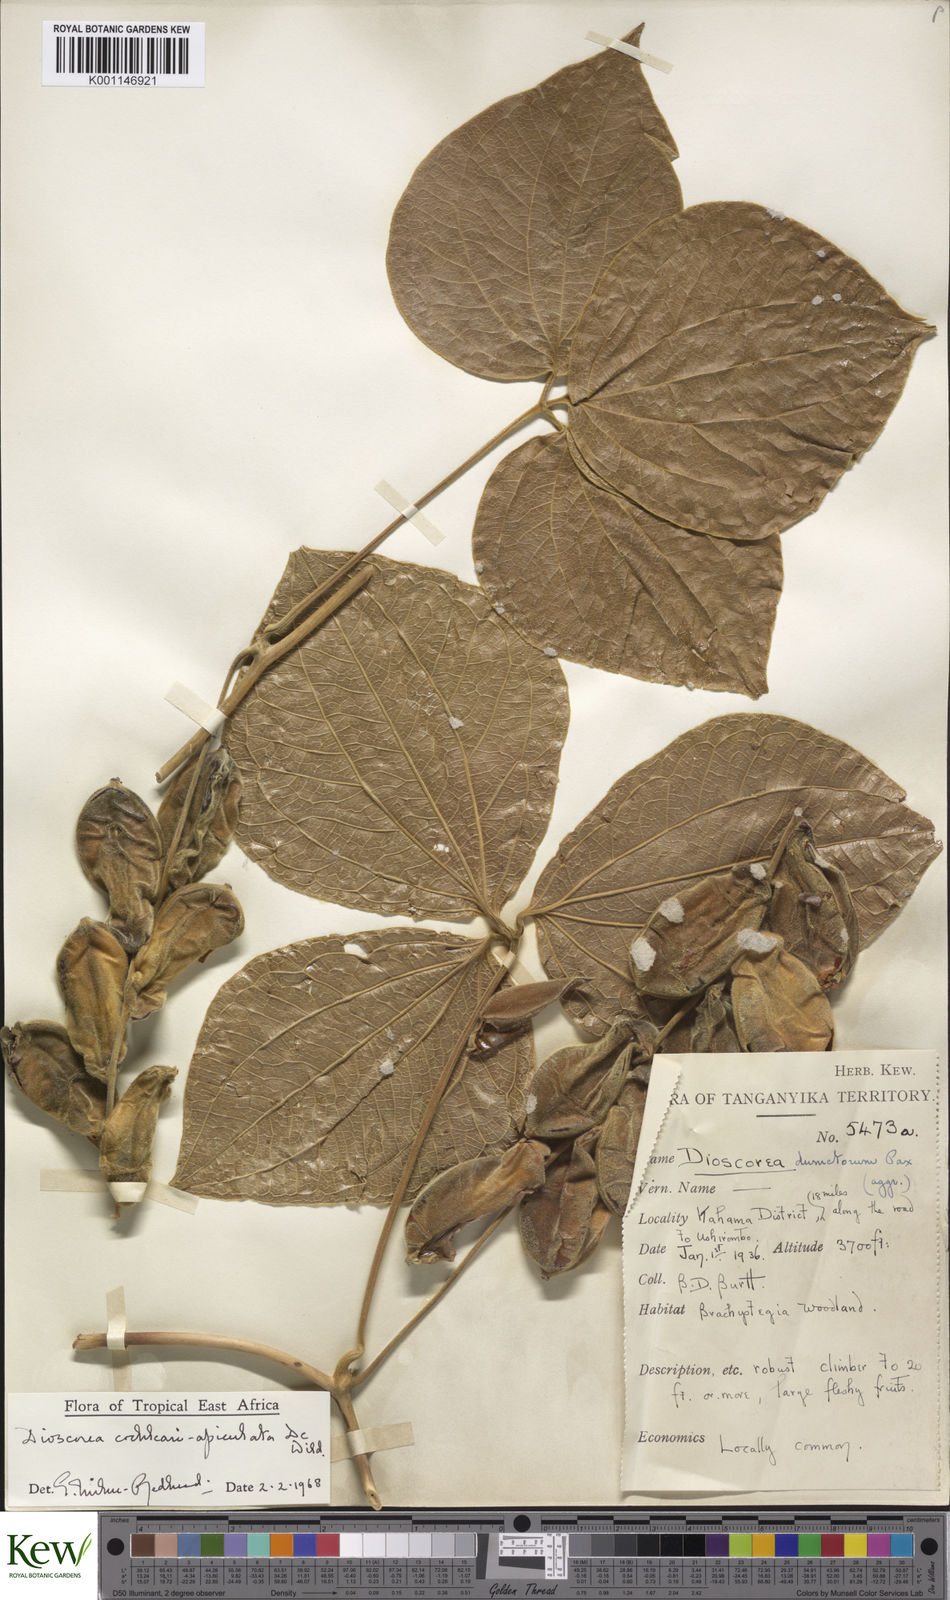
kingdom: Plantae
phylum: Tracheophyta
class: Liliopsida
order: Dioscoreales
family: Dioscoreaceae
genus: Dioscorea
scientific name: Dioscorea cochleariapiculata
